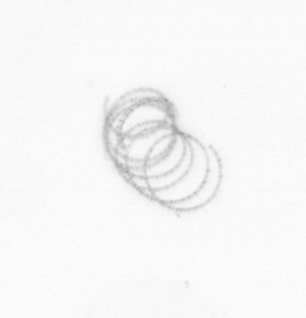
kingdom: Chromista
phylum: Ochrophyta
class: Bacillariophyceae
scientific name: Bacillariophyceae
